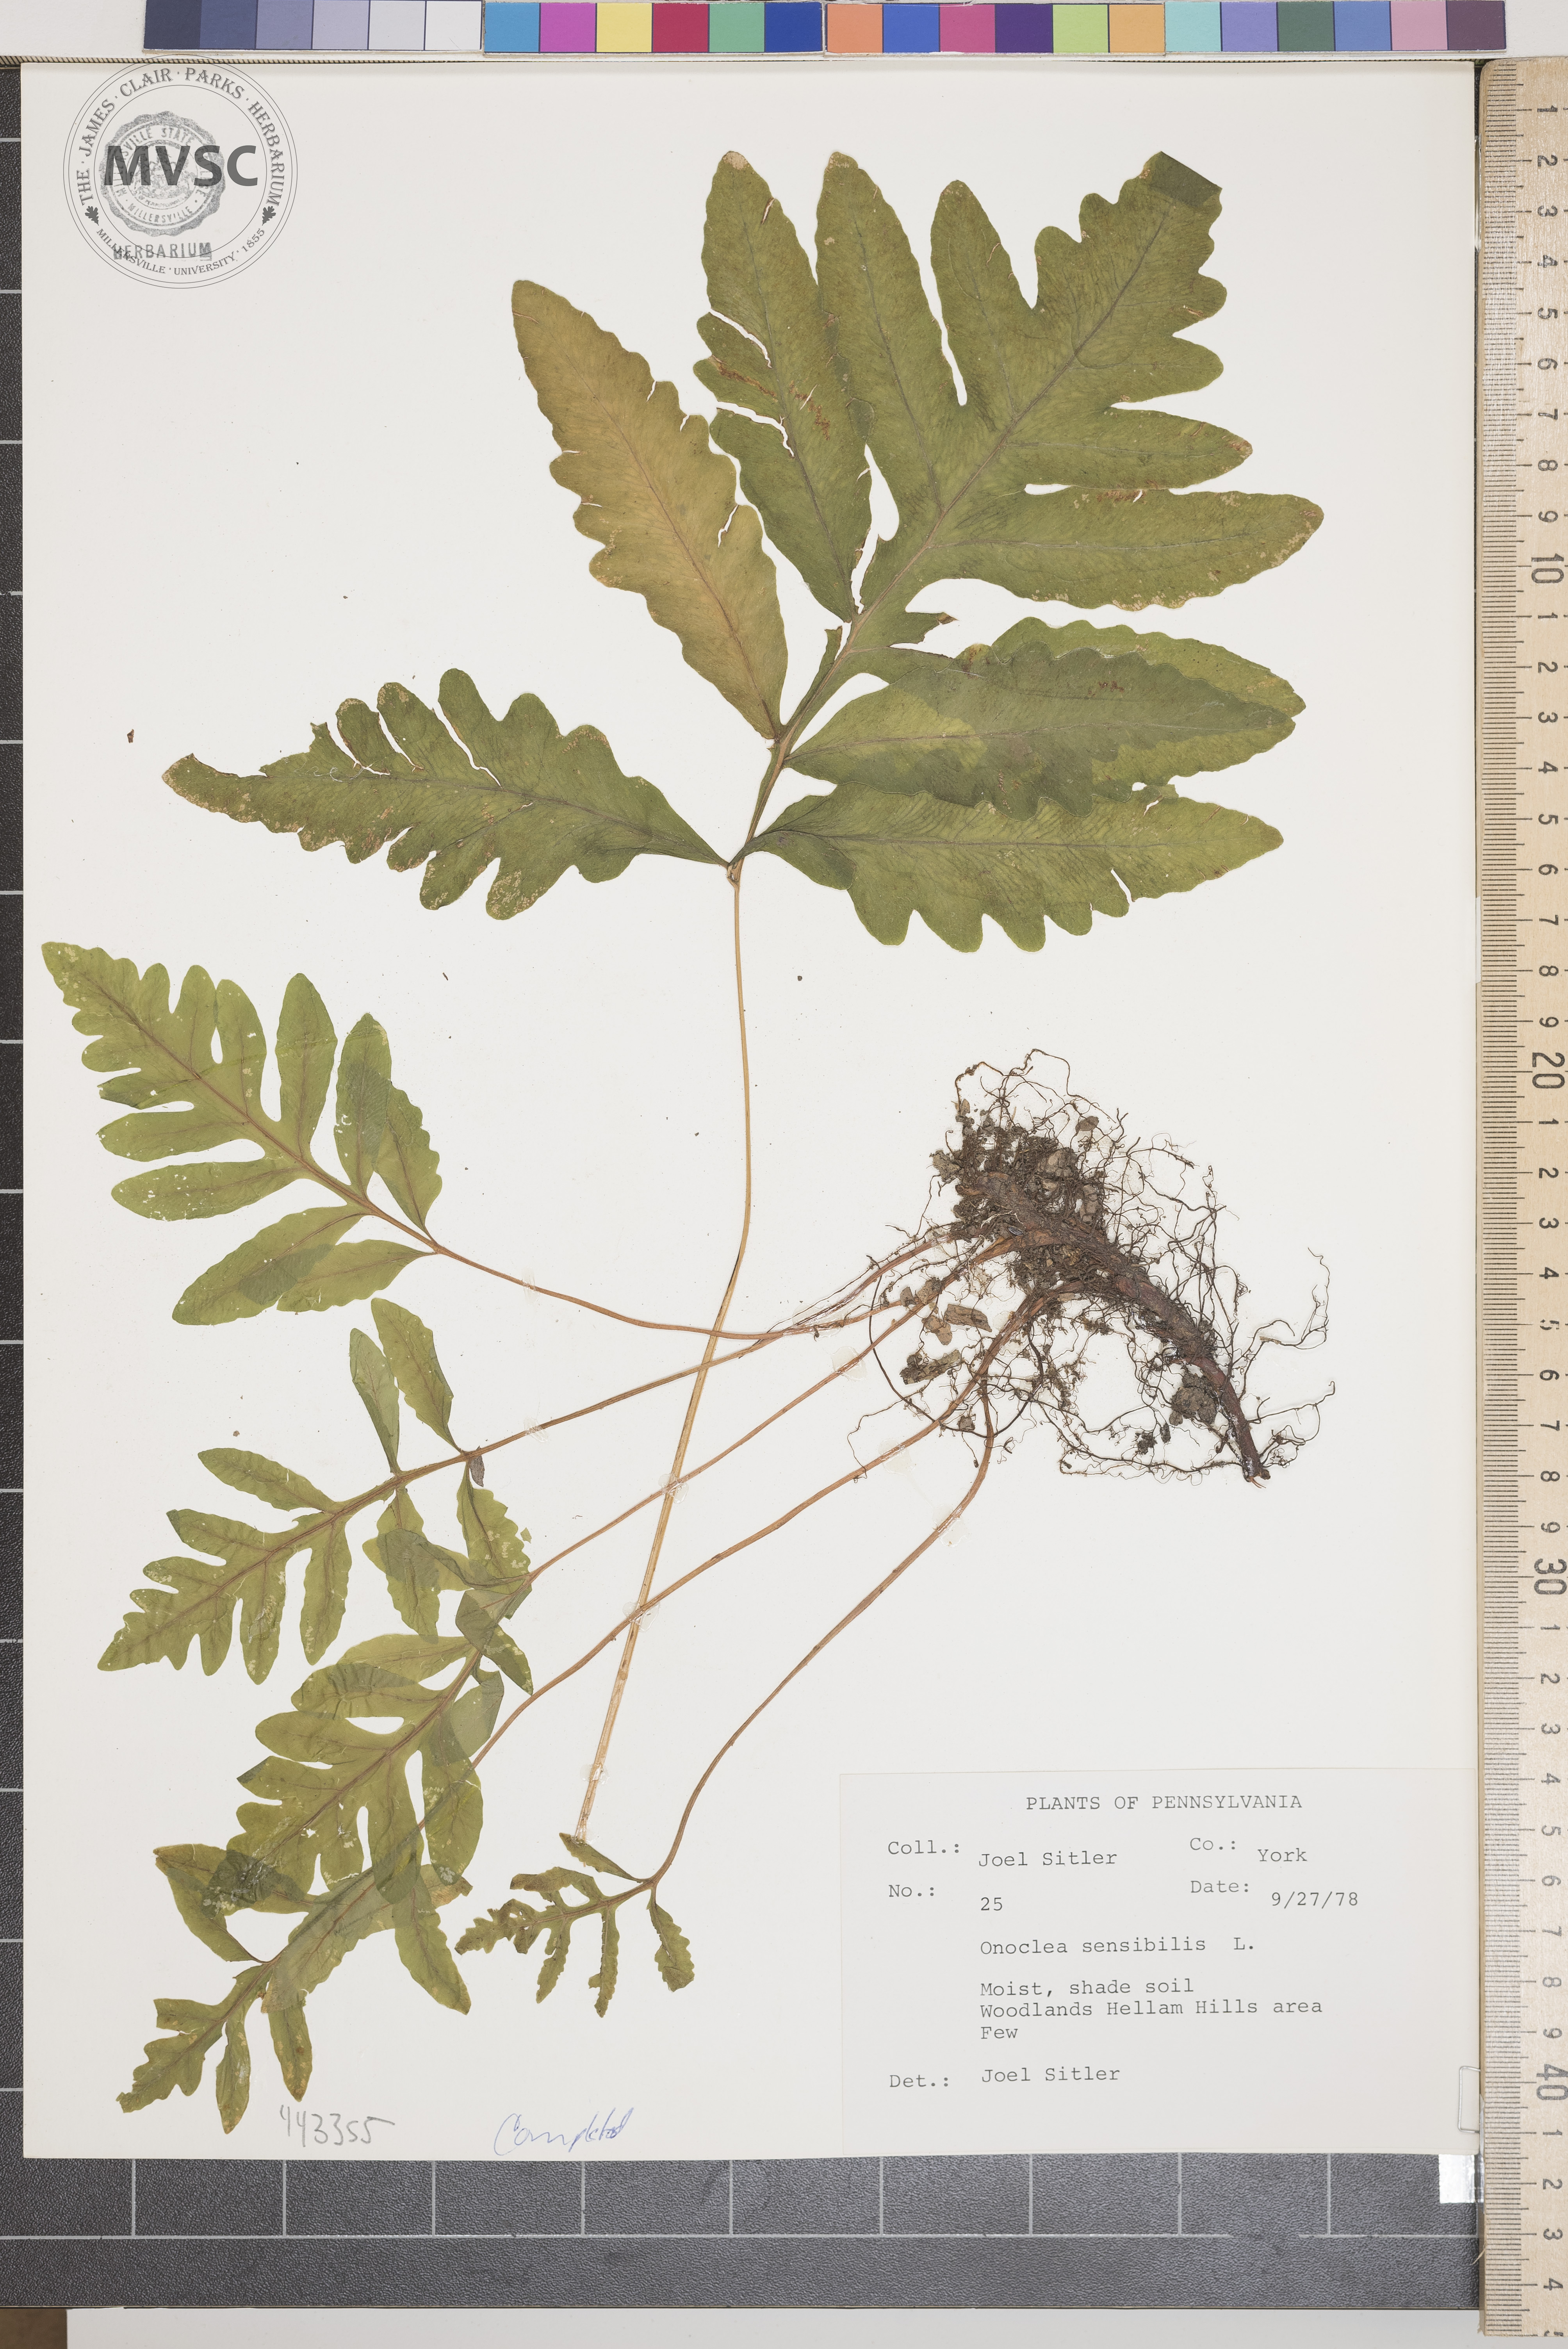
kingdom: Plantae
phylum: Tracheophyta
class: Polypodiopsida
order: Polypodiales
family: Onocleaceae
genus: Onoclea
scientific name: Onoclea sensibilis
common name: Sensitive fern
